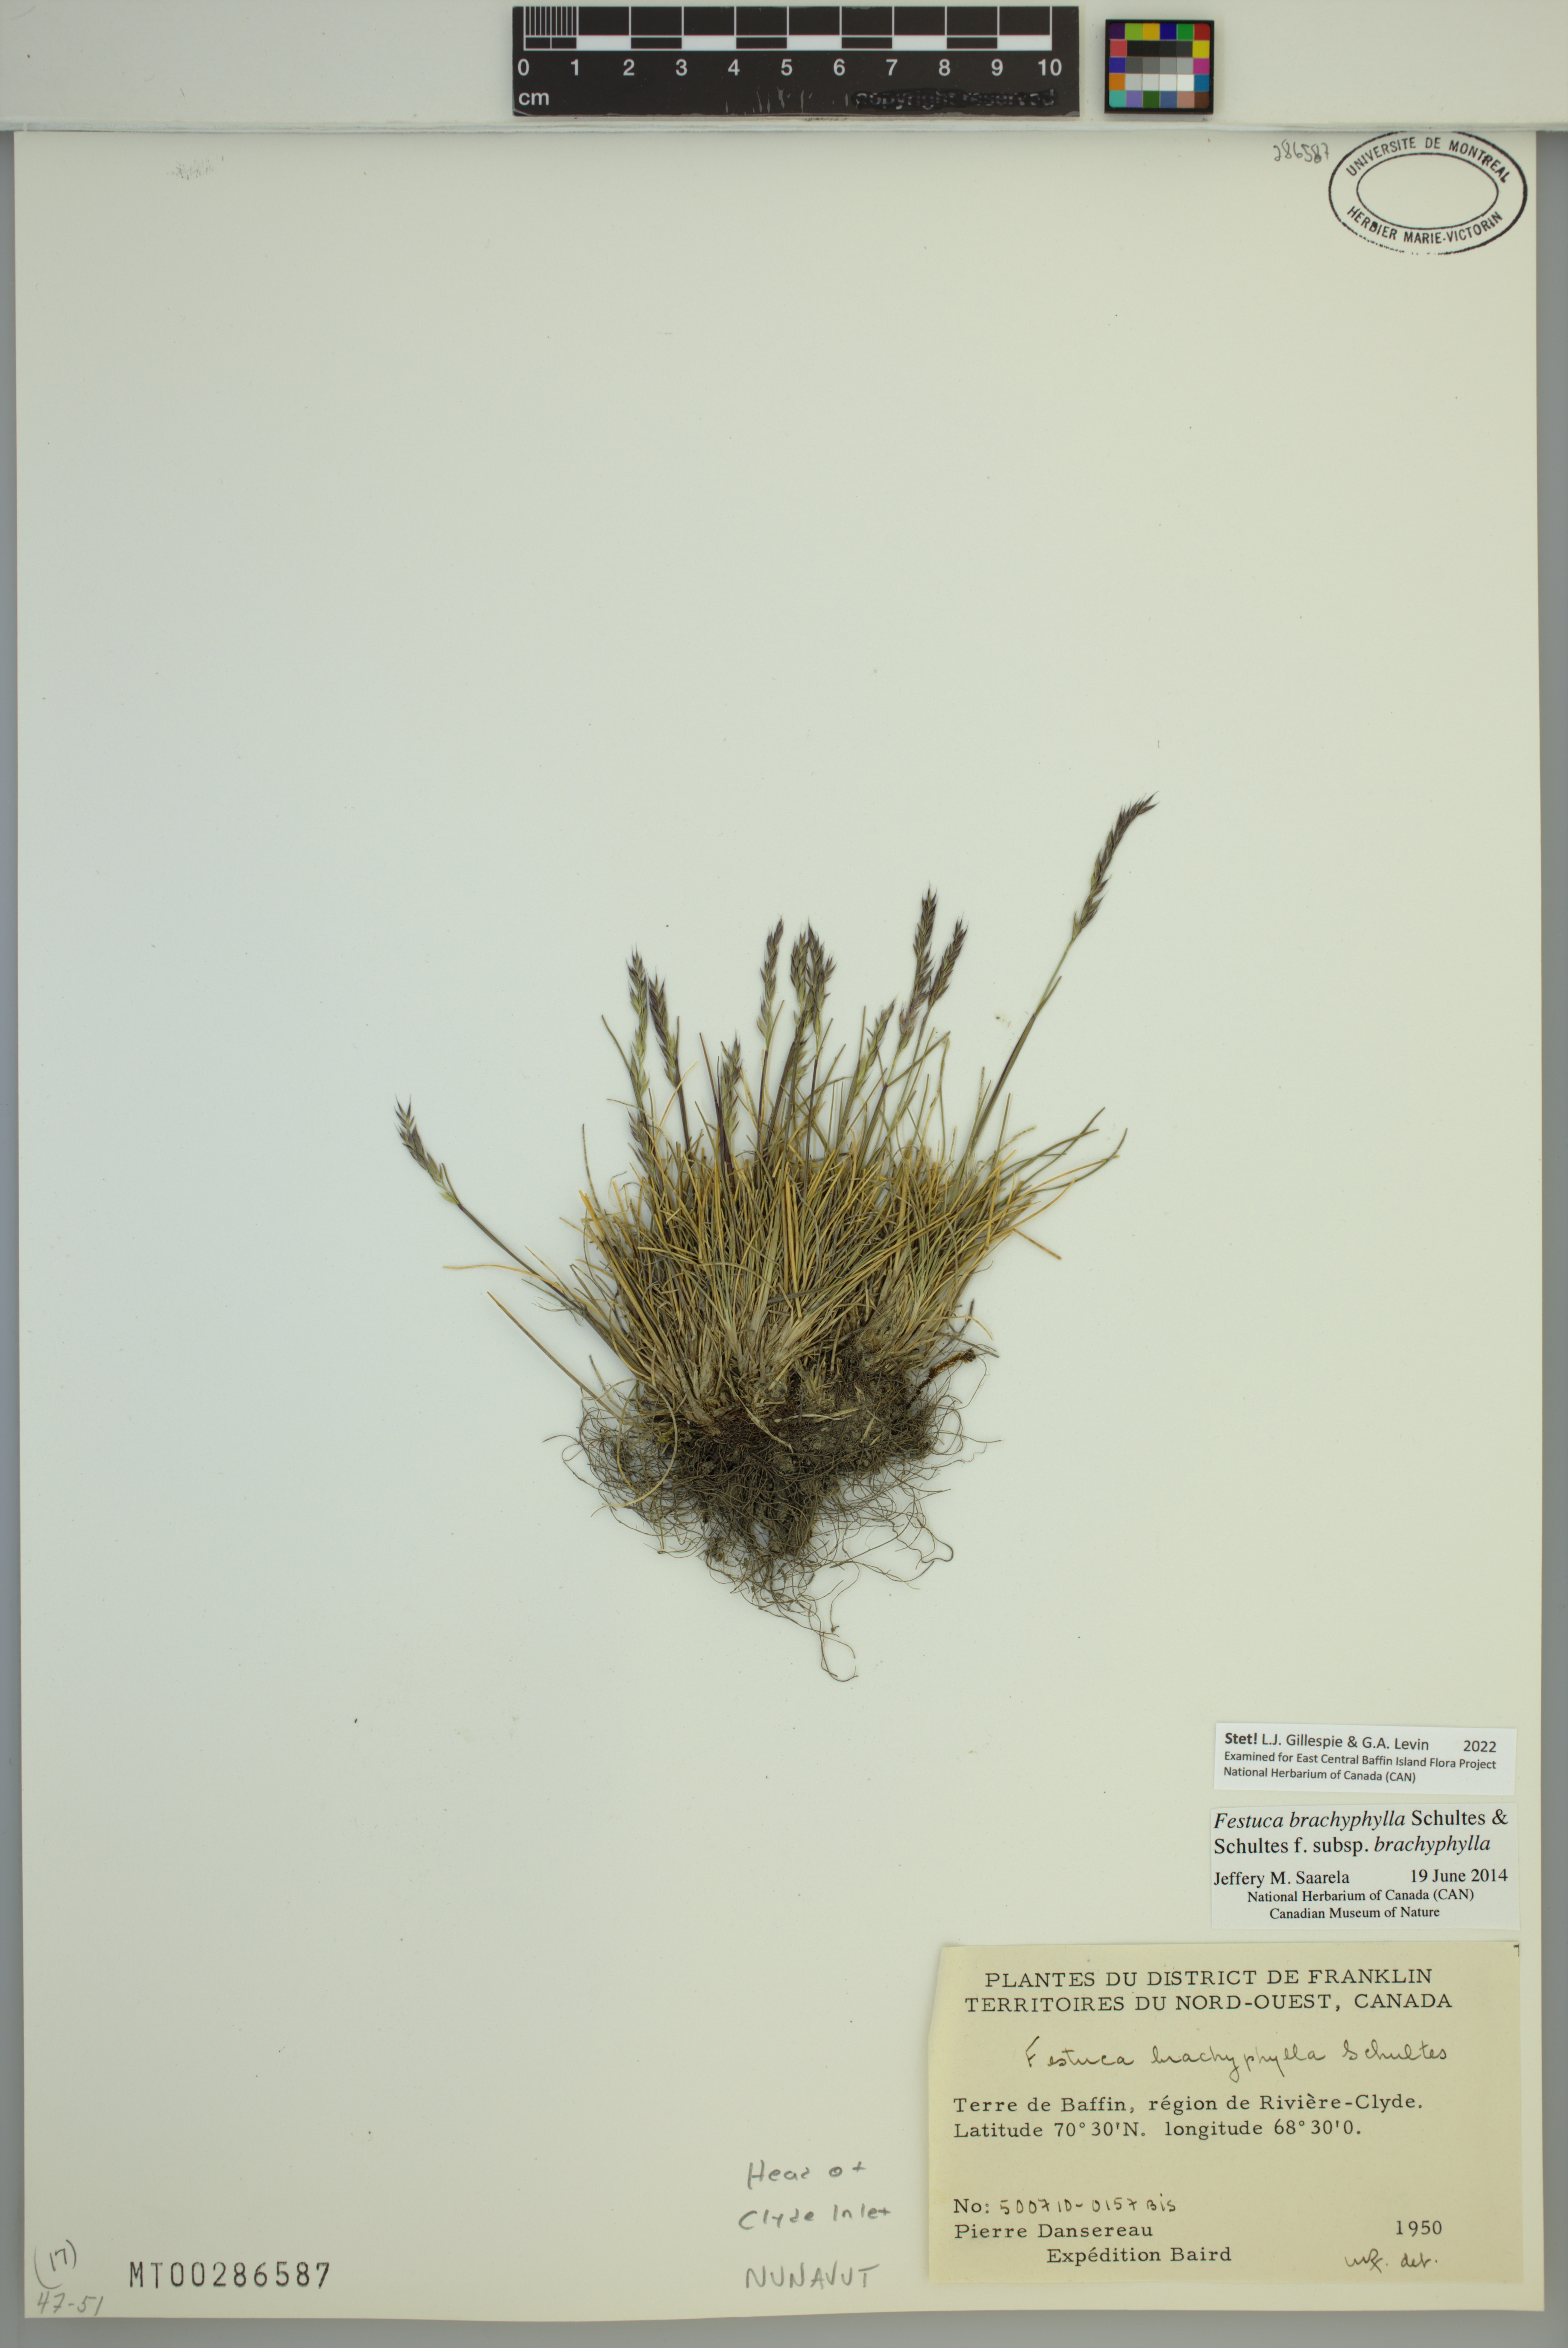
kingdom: Plantae
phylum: Tracheophyta
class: Liliopsida
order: Poales
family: Poaceae
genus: Festuca
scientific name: Festuca brachyphylla
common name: Alpine fescue
